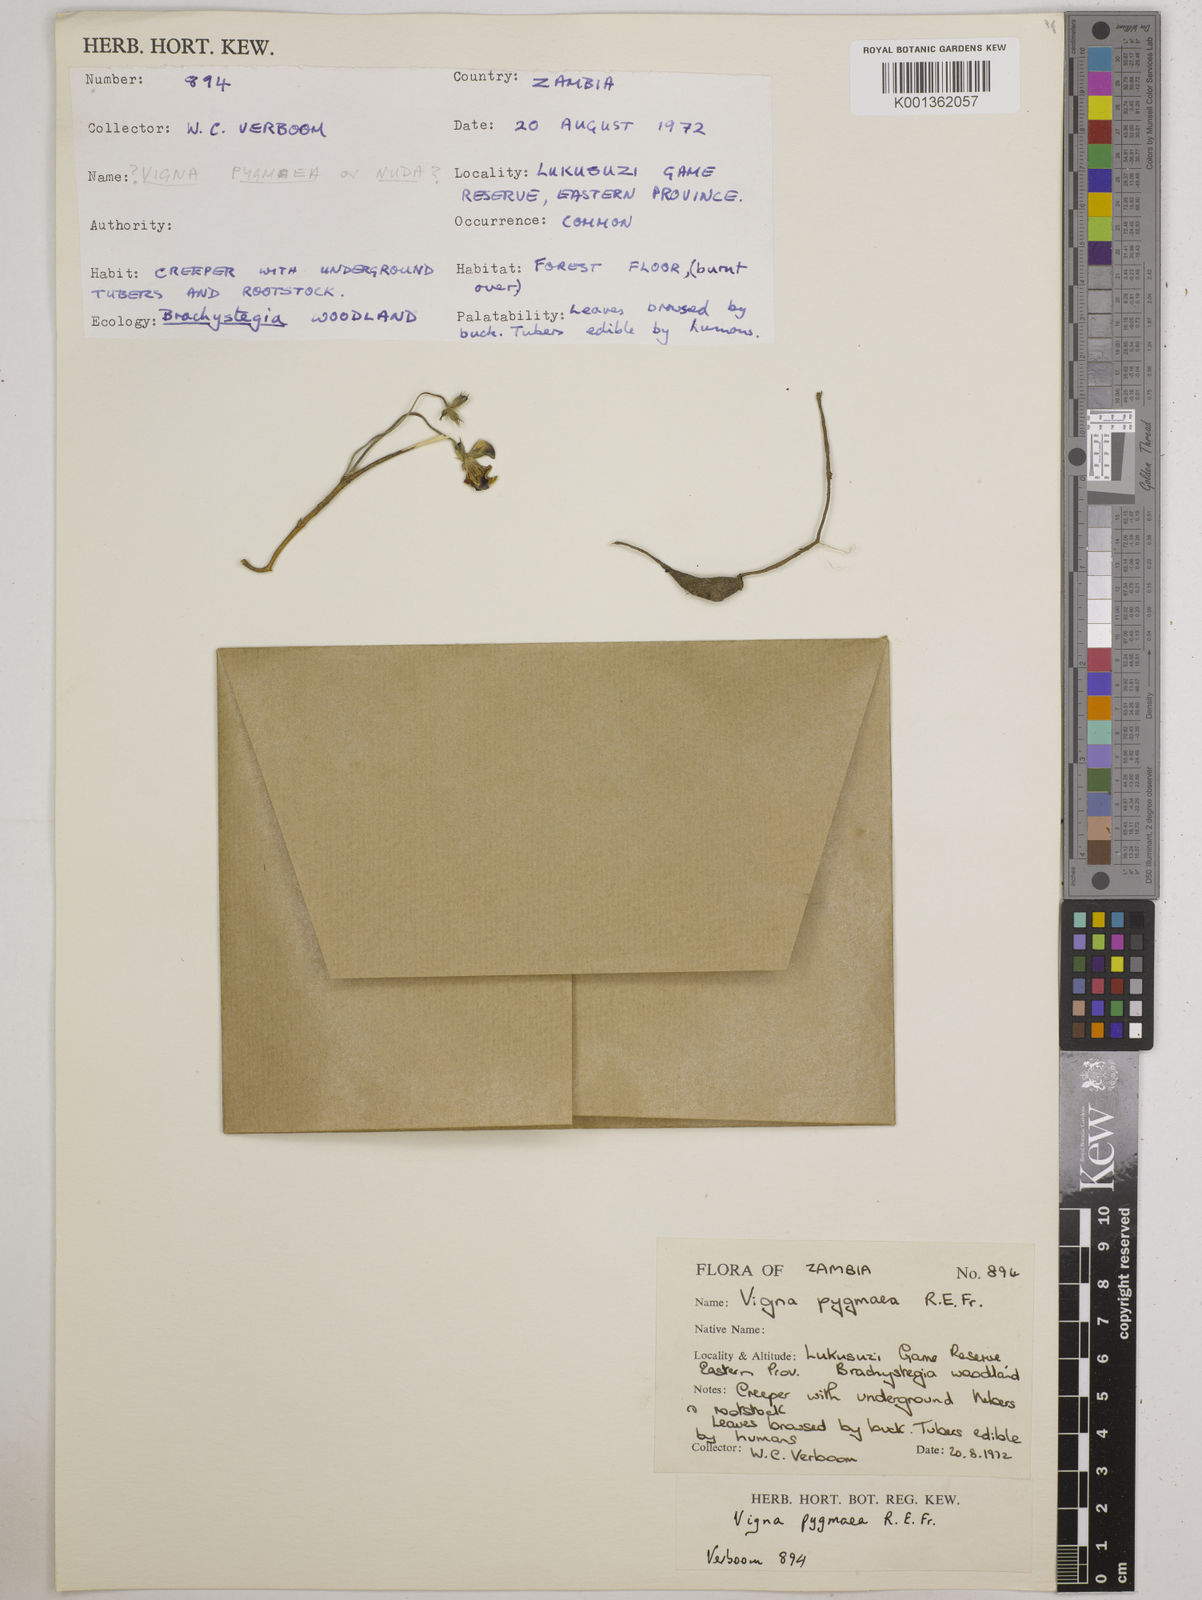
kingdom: Plantae
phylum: Tracheophyta
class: Magnoliopsida
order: Fabales
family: Fabaceae
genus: Vigna
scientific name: Vigna pygmaea
